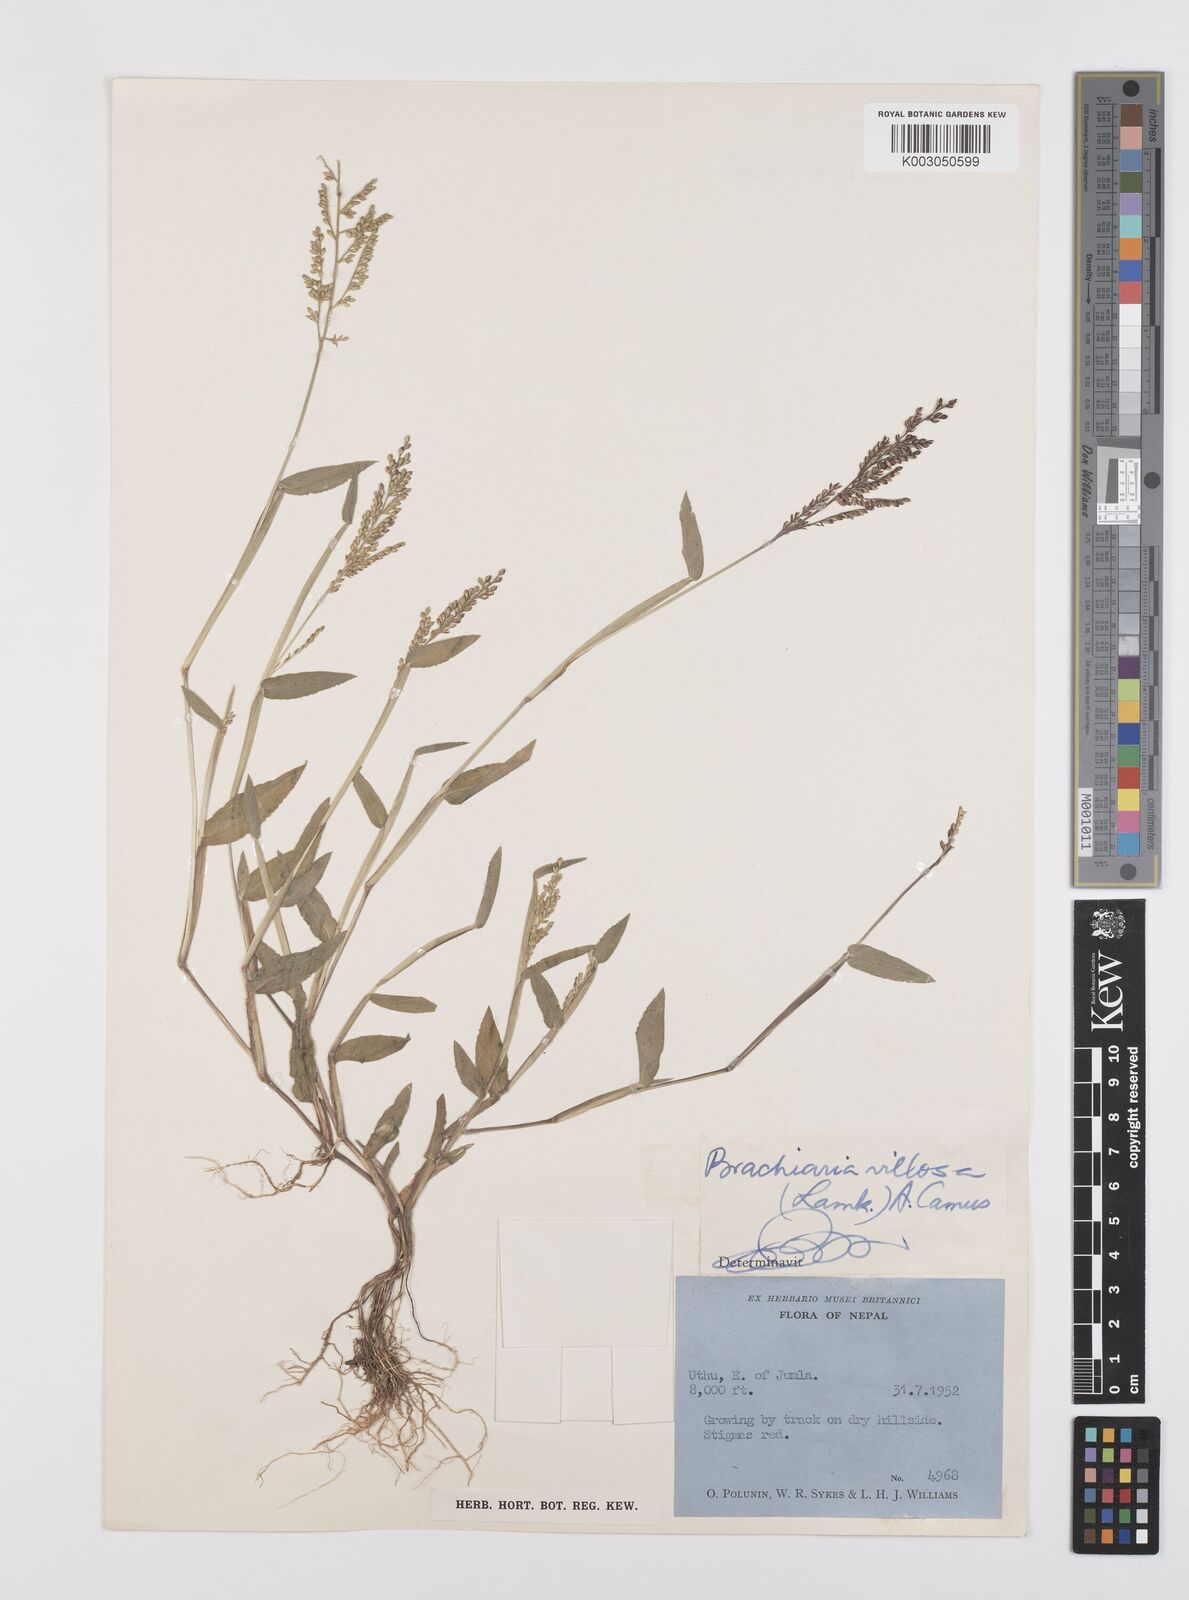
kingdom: Plantae
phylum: Tracheophyta
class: Liliopsida
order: Poales
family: Poaceae
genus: Urochloa
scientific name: Urochloa villosa
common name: Hairy signalgrass
